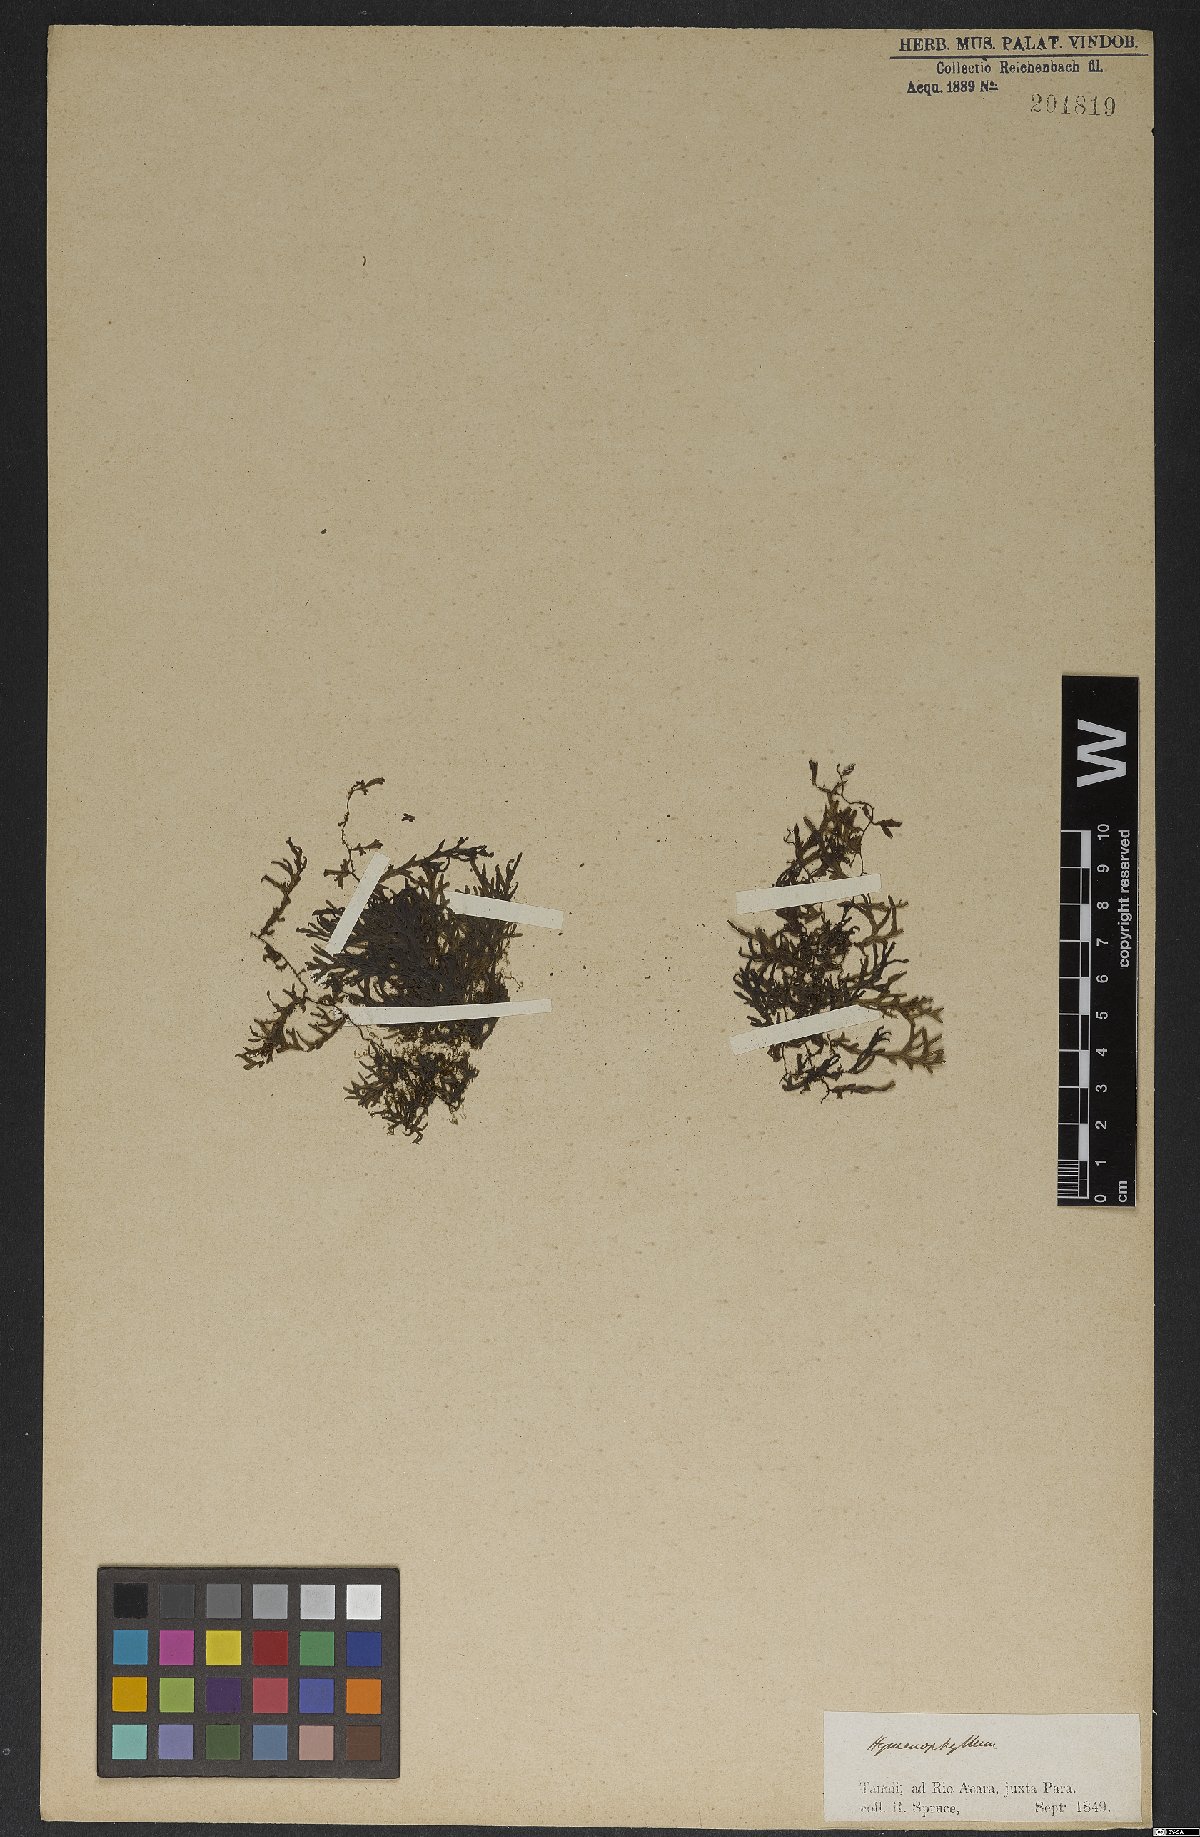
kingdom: Plantae
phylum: Tracheophyta
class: Polypodiopsida
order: Hymenophyllales
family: Hymenophyllaceae
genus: Hymenophyllum
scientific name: Hymenophyllum
